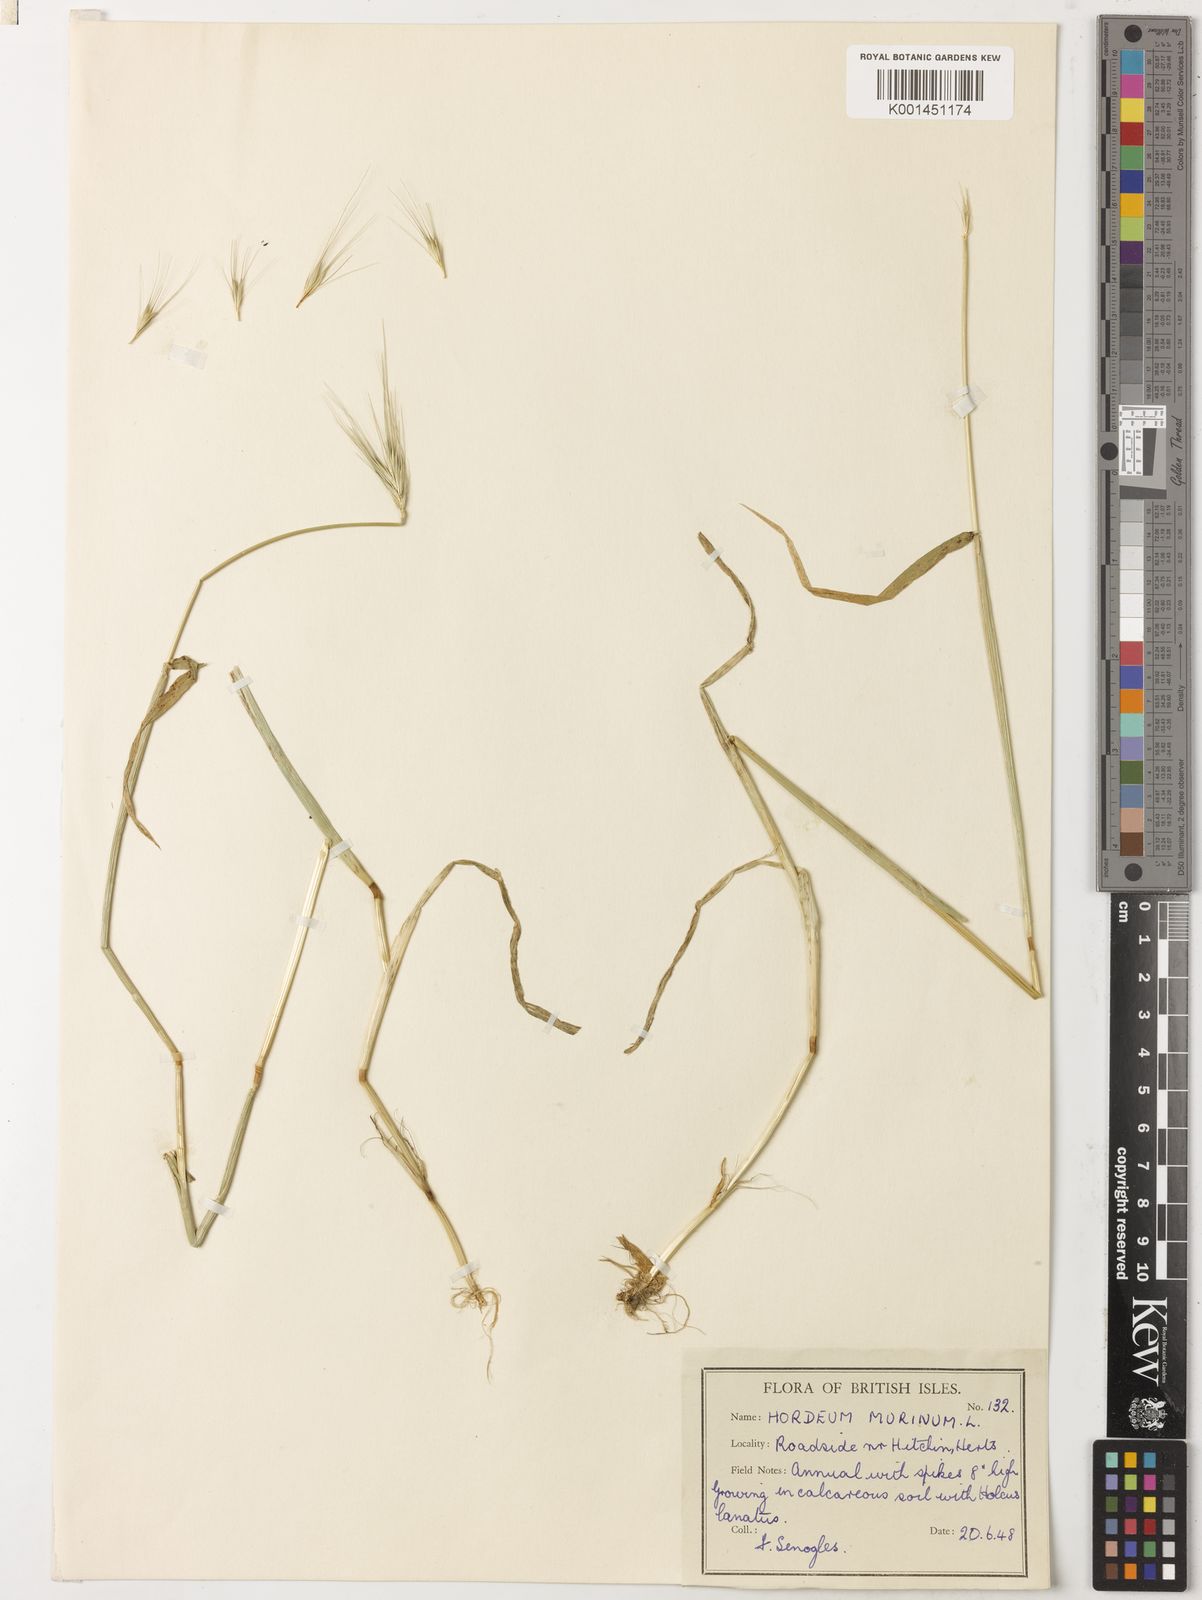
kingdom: Plantae
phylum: Tracheophyta
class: Liliopsida
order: Poales
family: Poaceae
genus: Hordeum
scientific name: Hordeum murinum
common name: Wall barley
